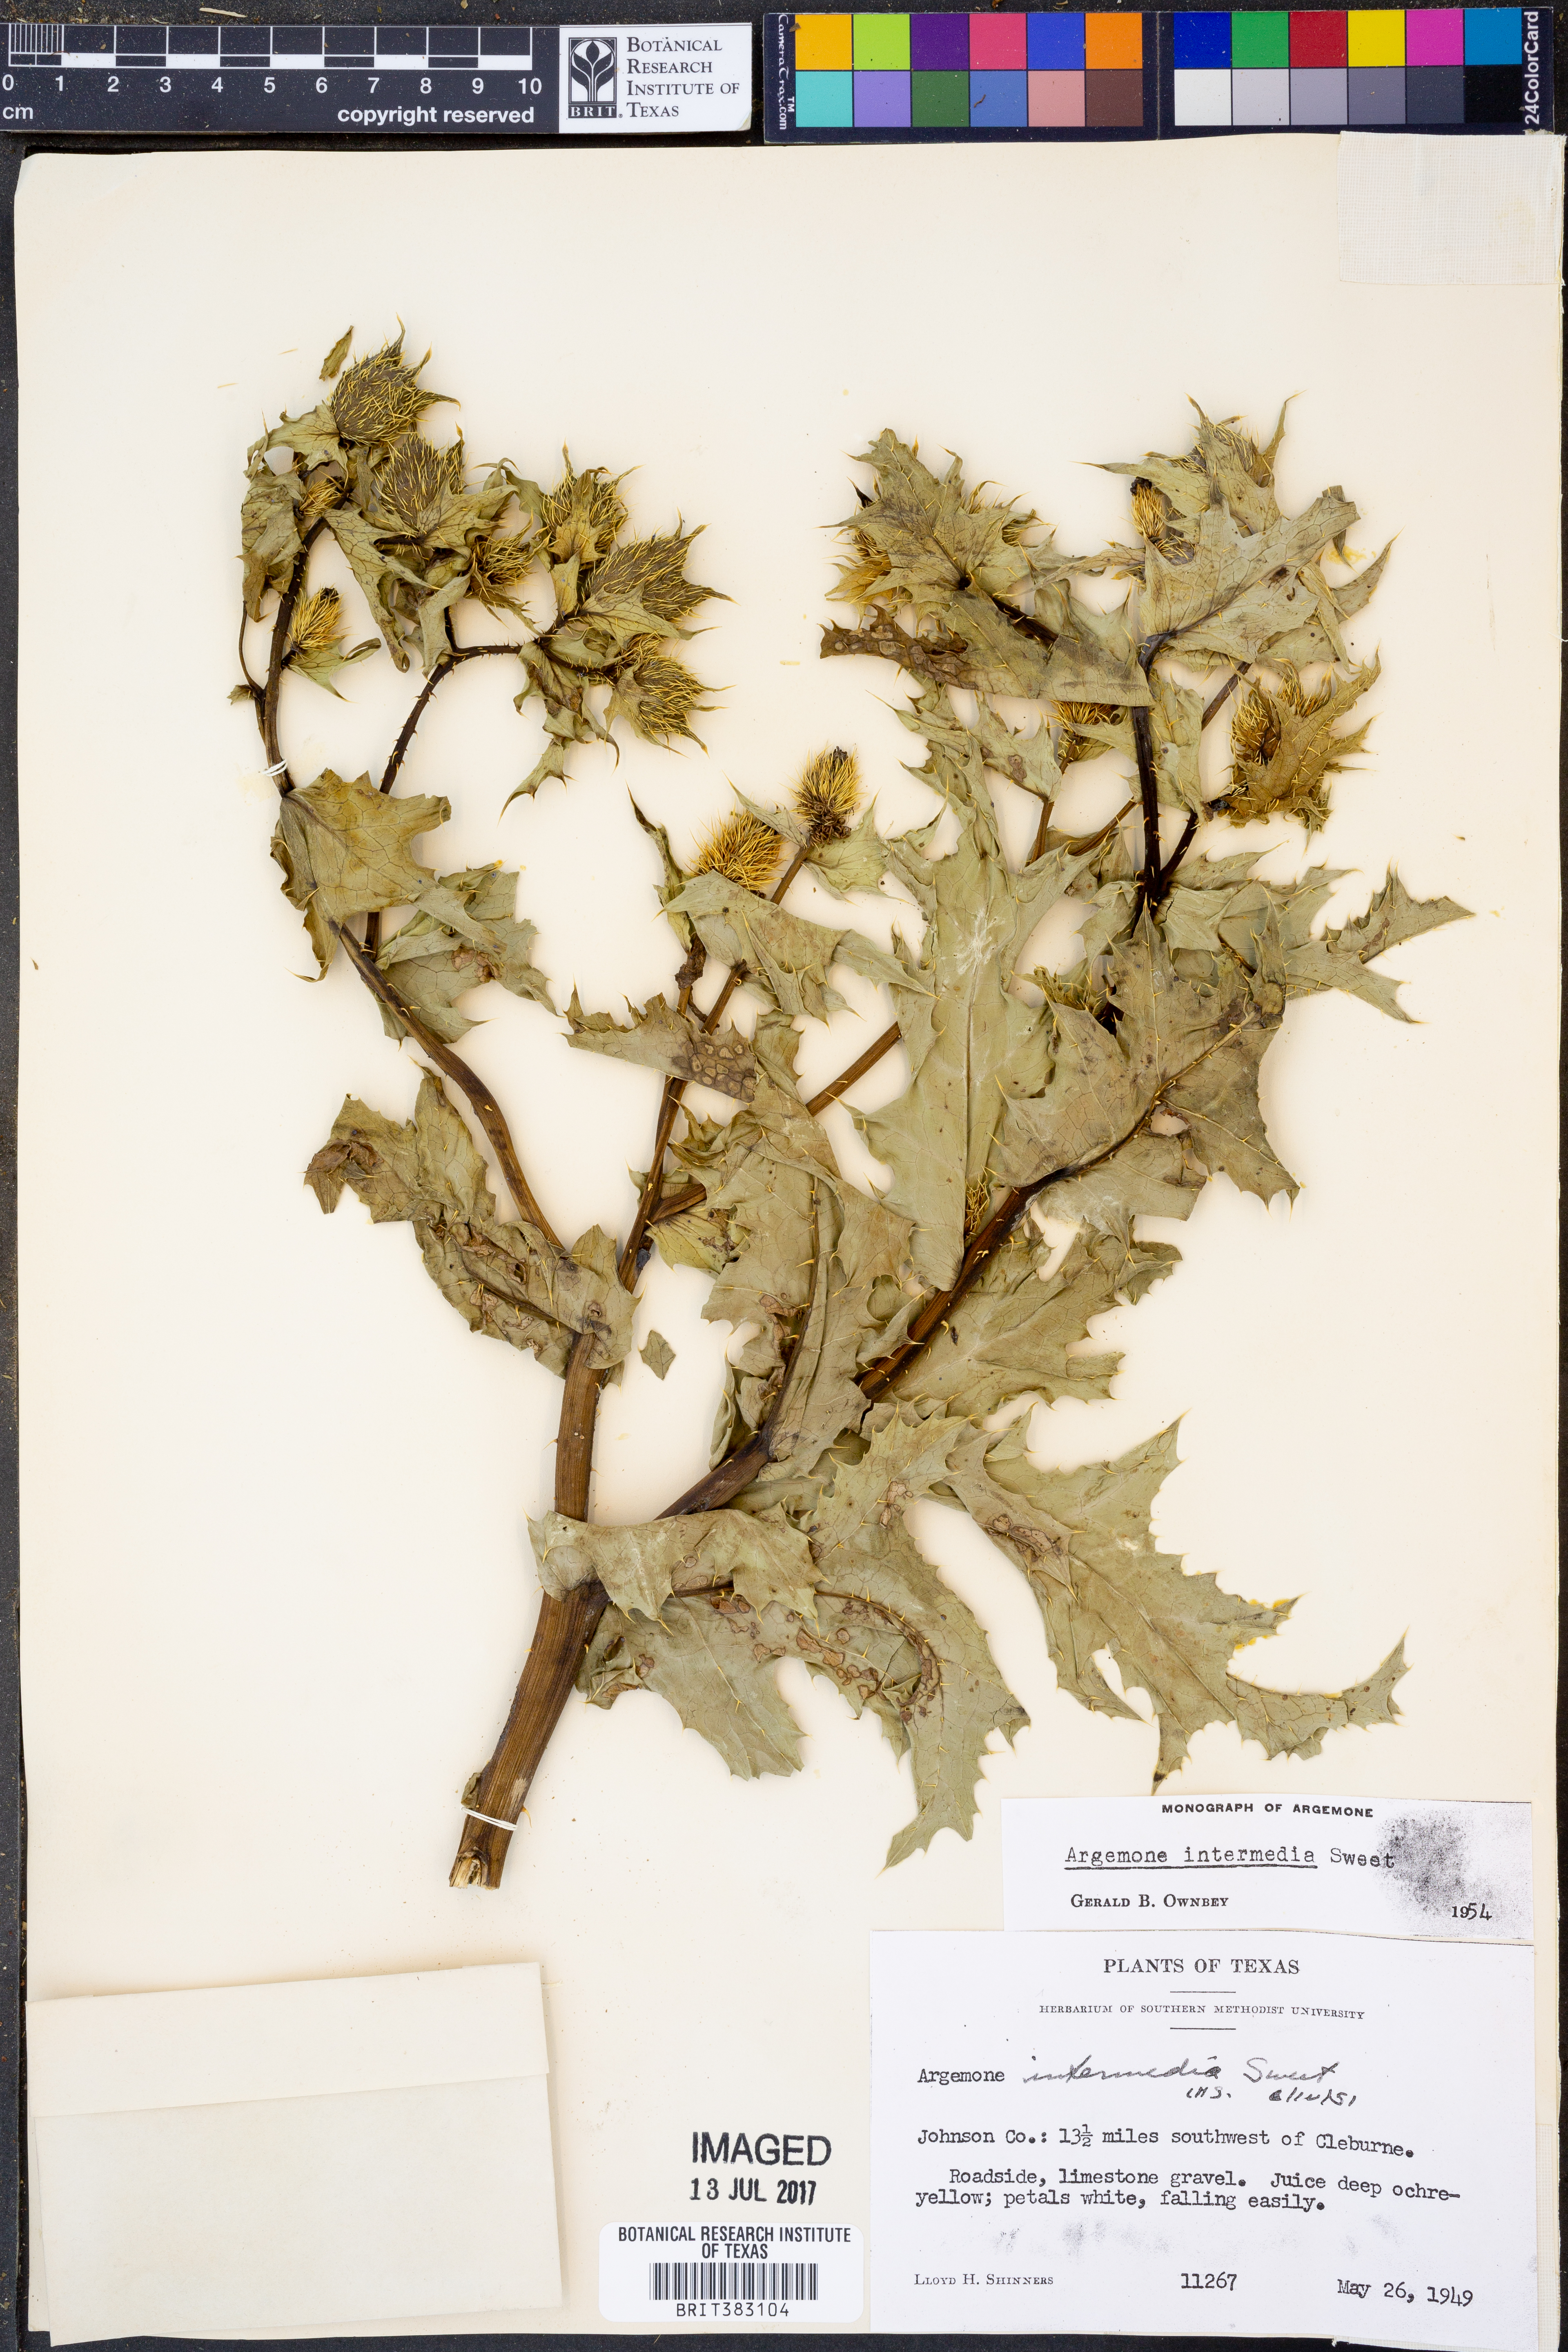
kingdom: Plantae
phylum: Tracheophyta
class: Magnoliopsida
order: Ranunculales
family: Papaveraceae
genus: Argemone
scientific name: Argemone intermedia
